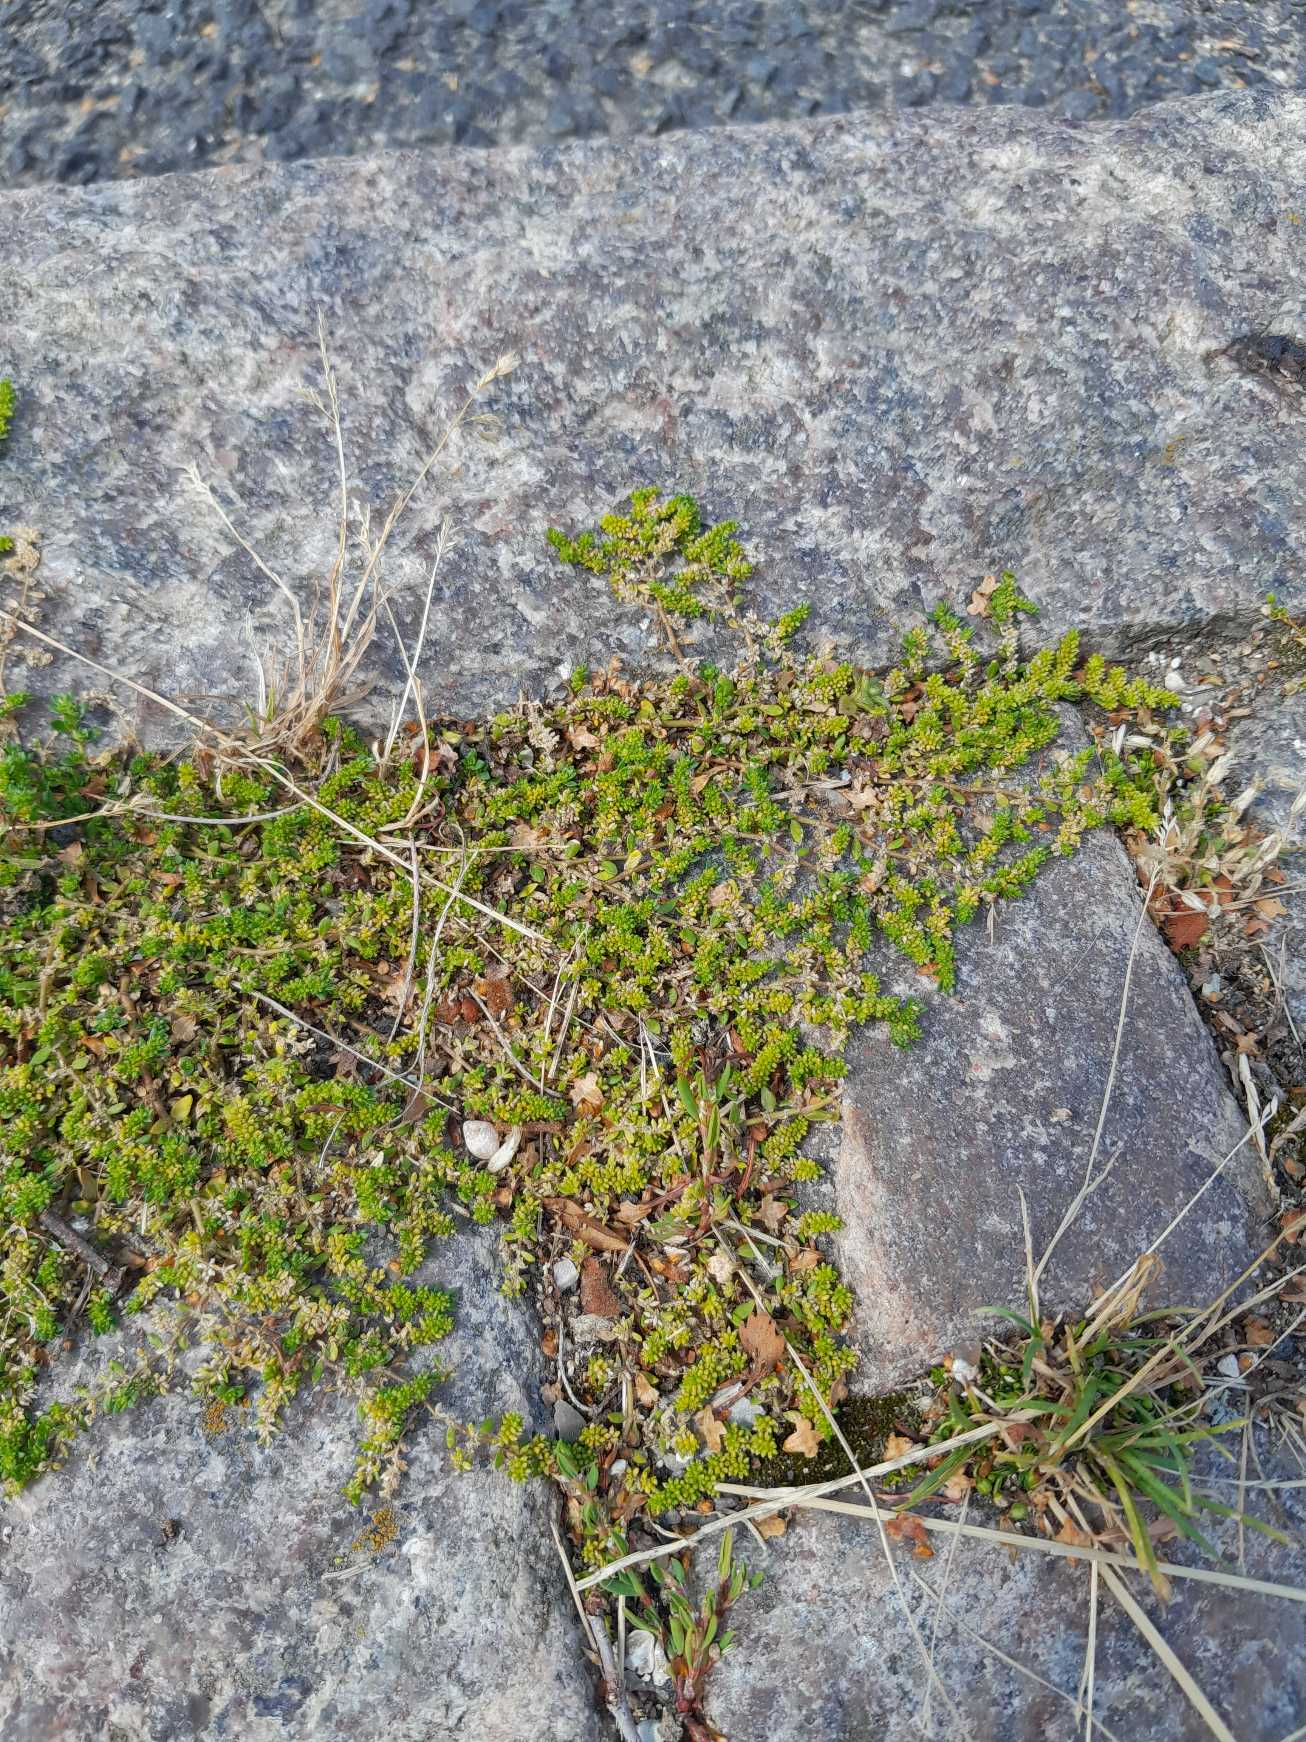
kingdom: Plantae
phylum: Tracheophyta
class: Magnoliopsida
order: Caryophyllales
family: Caryophyllaceae
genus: Herniaria
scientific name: Herniaria glabra
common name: Brudurt
